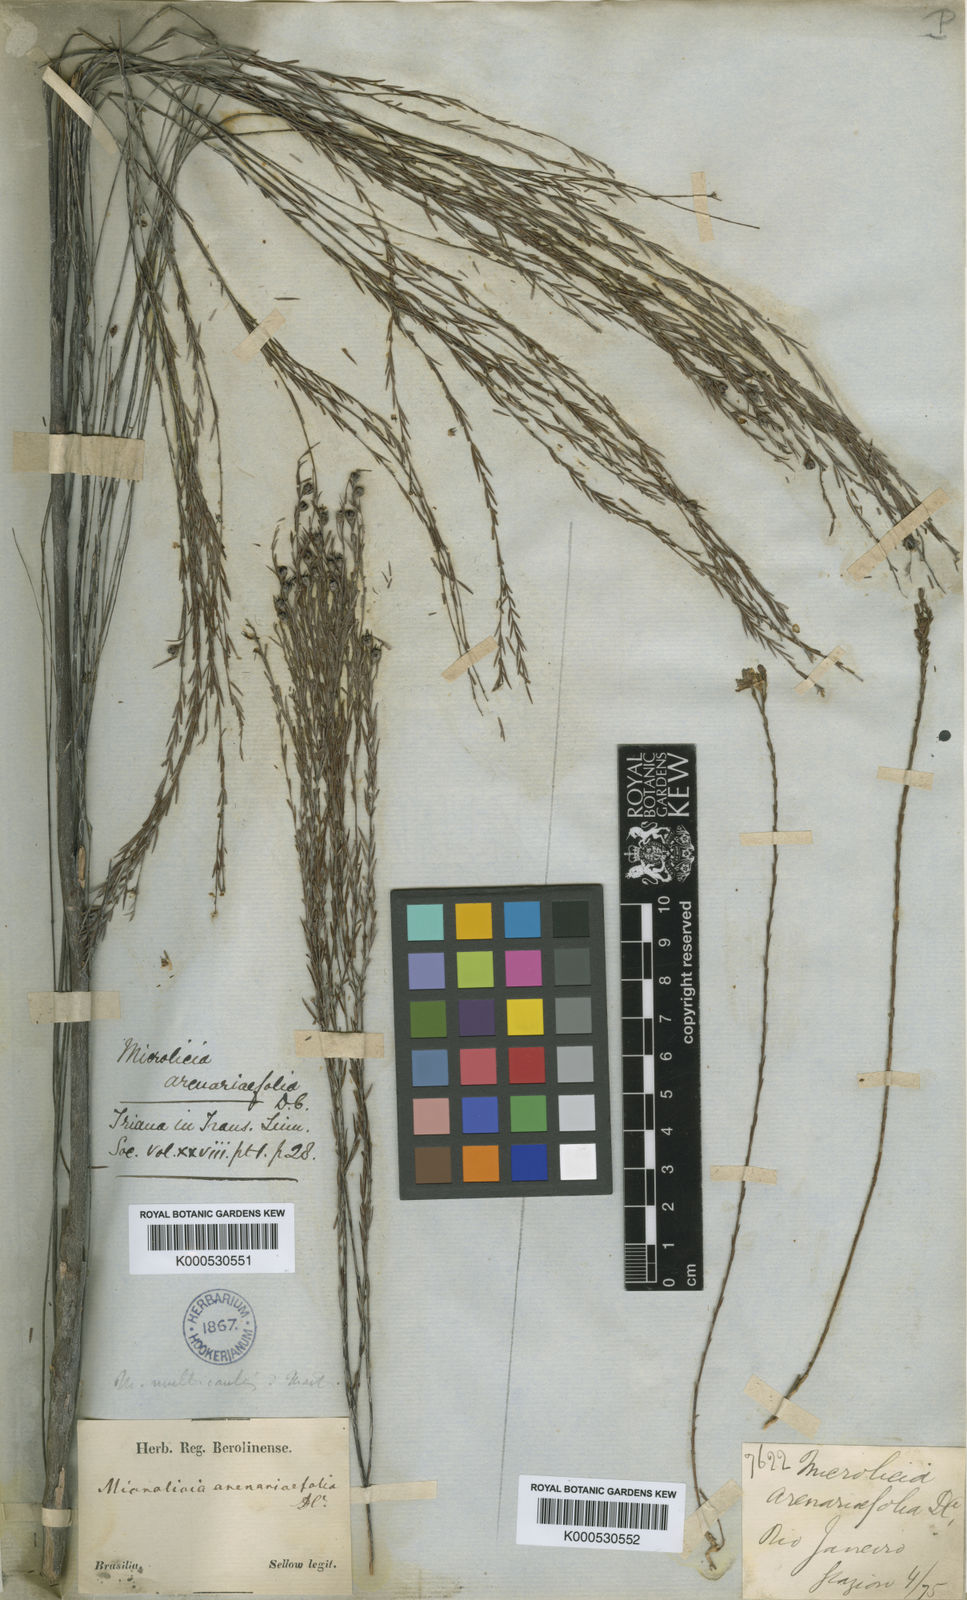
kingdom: Plantae
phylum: Tracheophyta
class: Magnoliopsida
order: Myrtales
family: Melastomataceae
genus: Microlicia
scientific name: Microlicia
